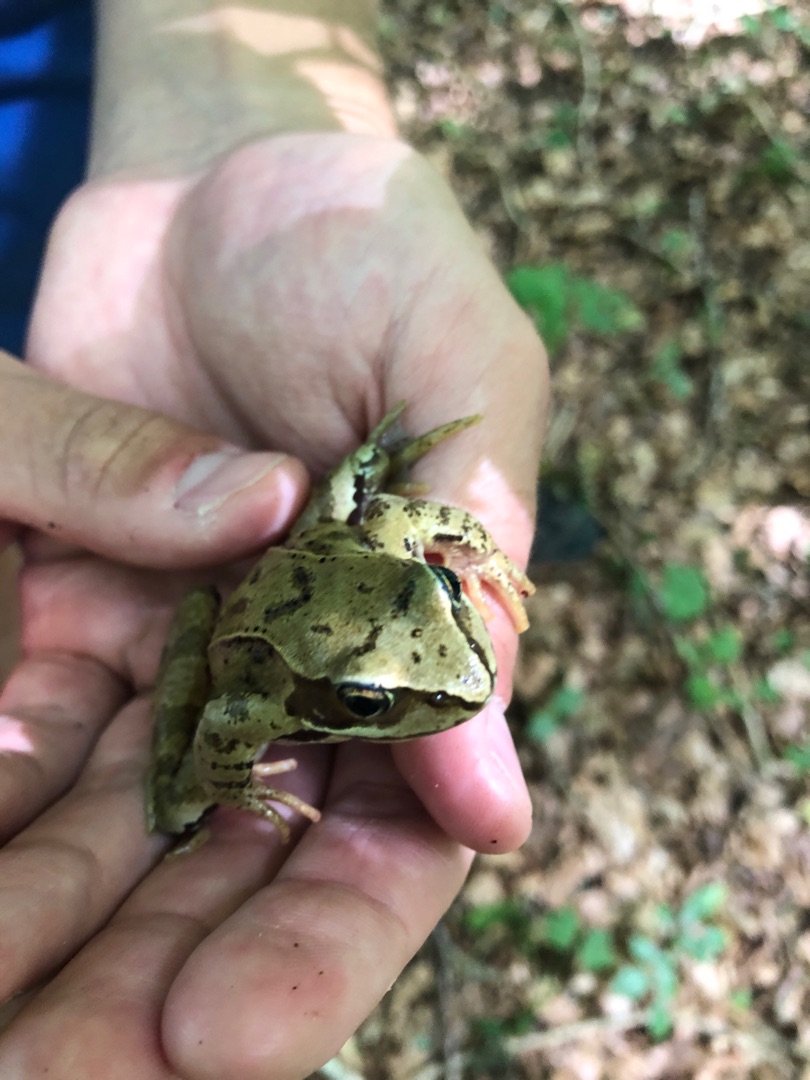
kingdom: Animalia
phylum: Chordata
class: Amphibia
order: Anura
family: Ranidae
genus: Rana
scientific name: Rana temporaria
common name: Butsnudet frø
